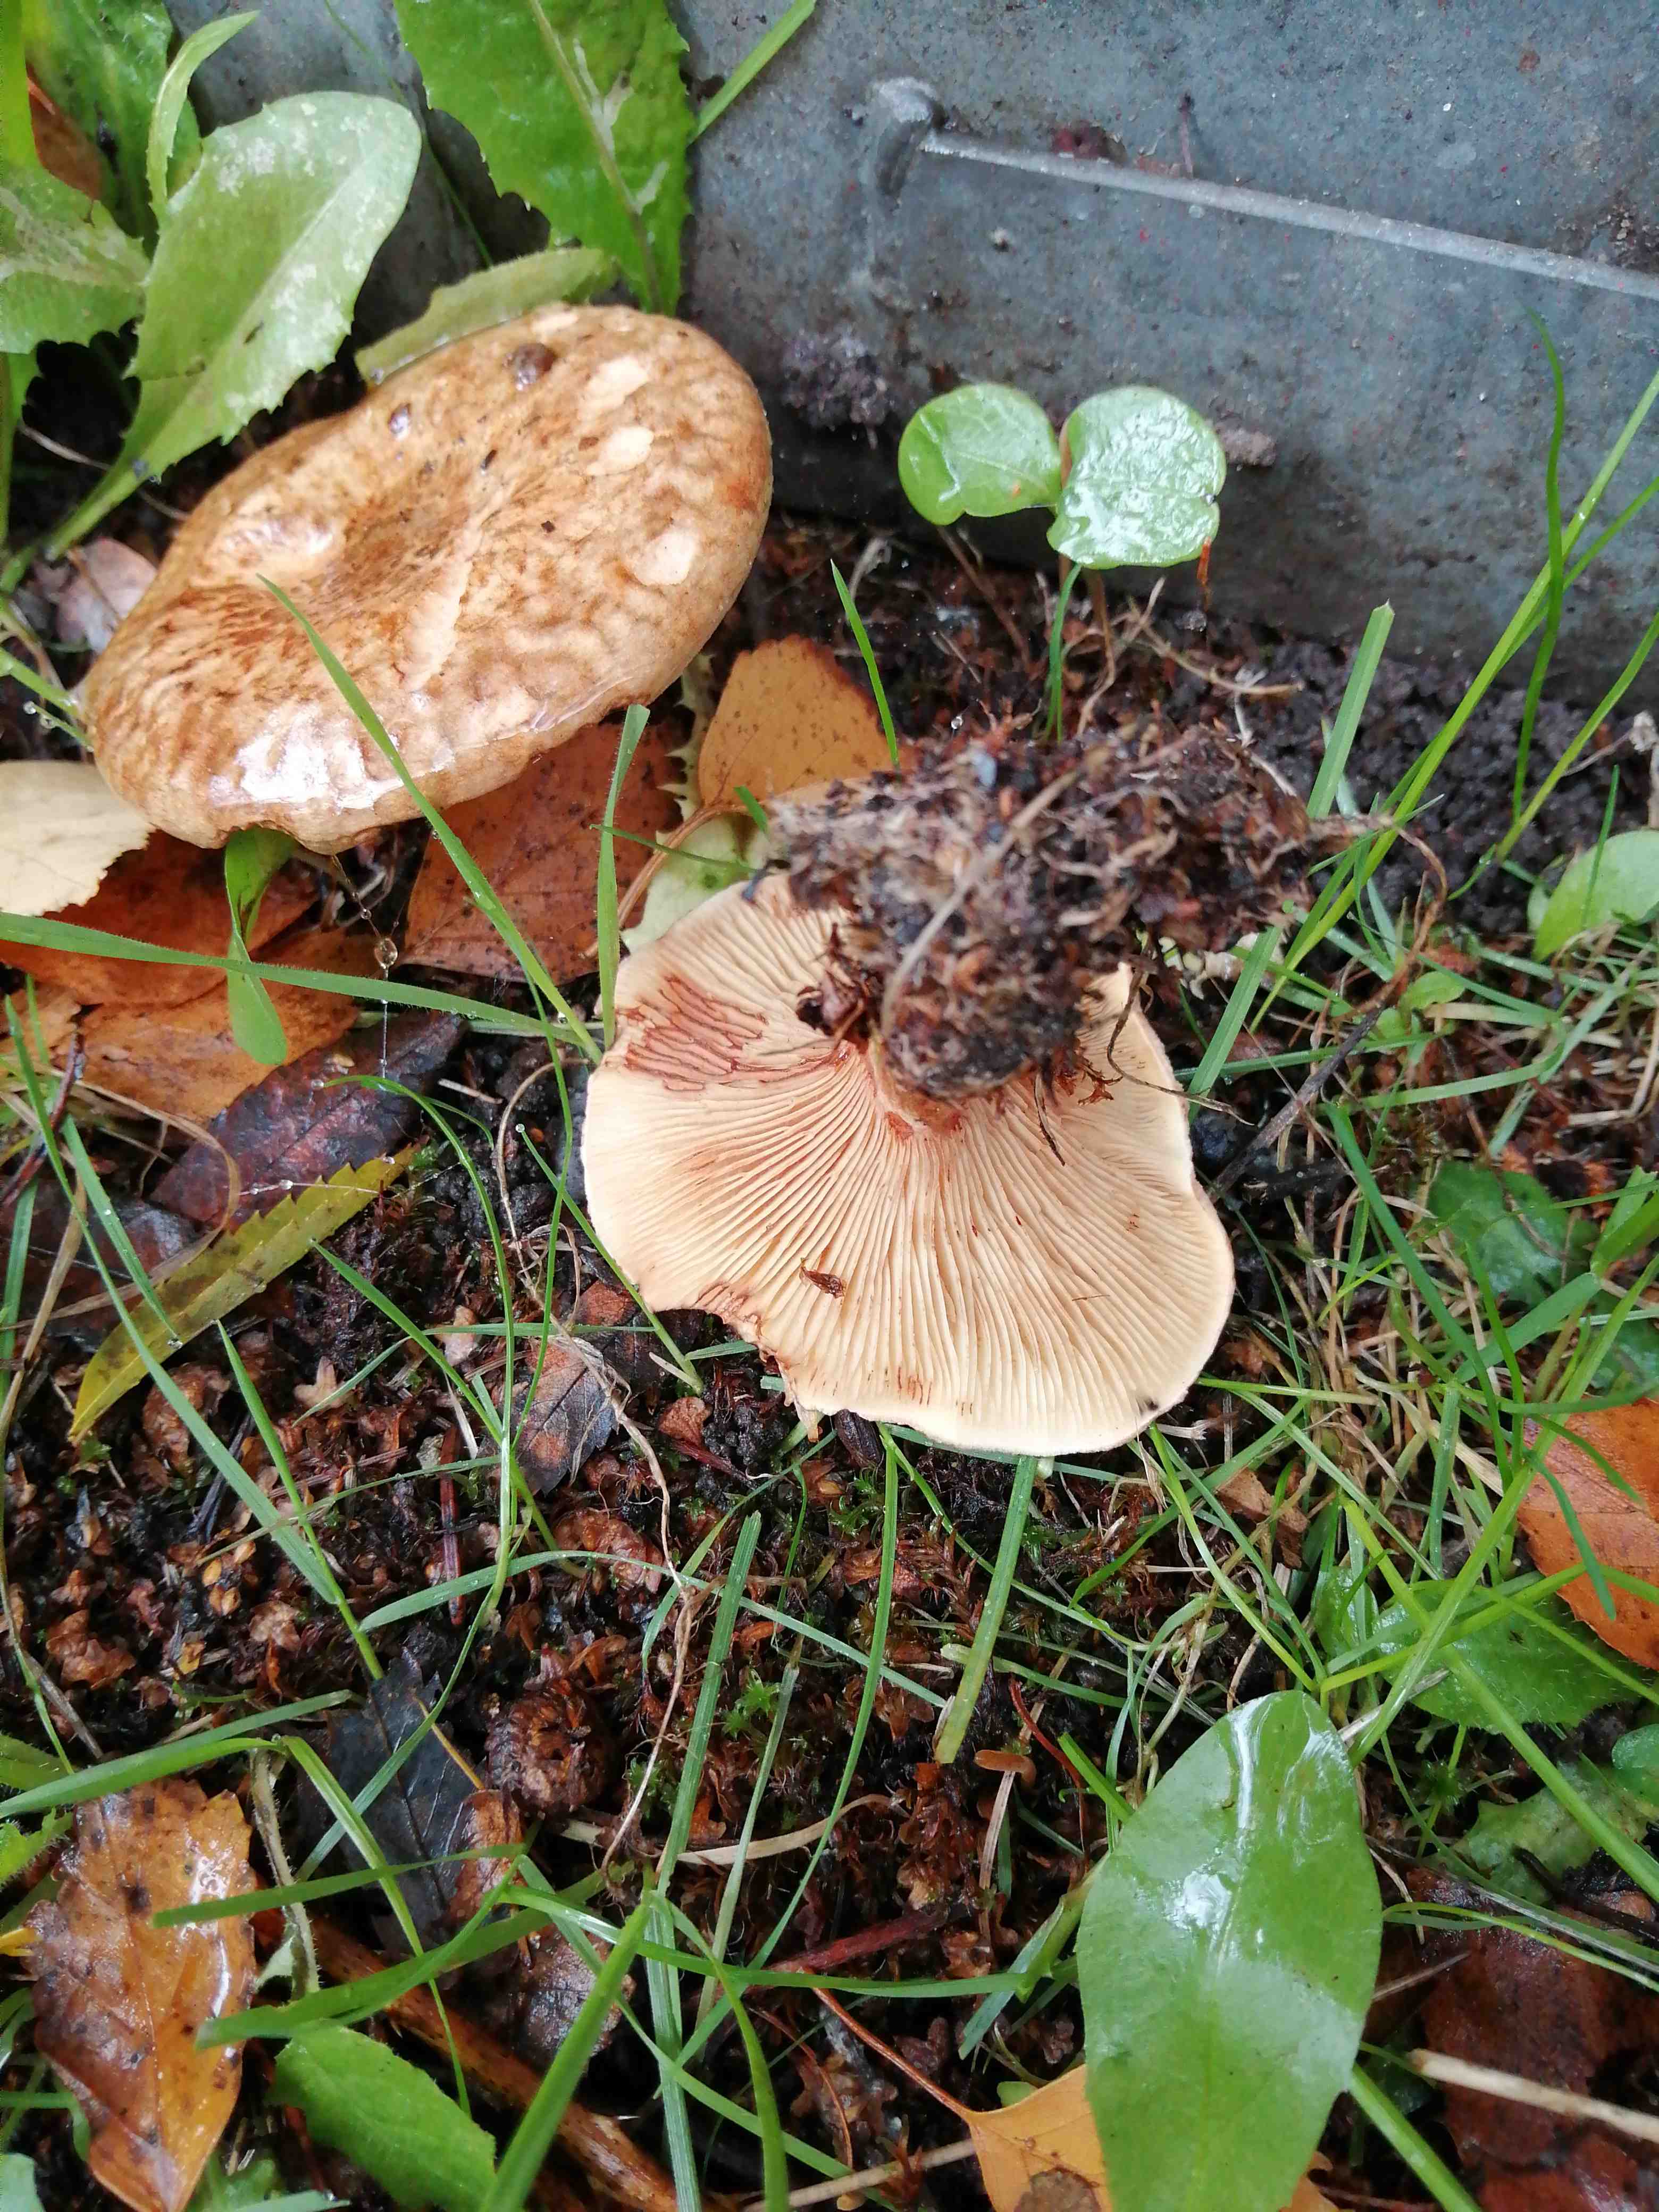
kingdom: Fungi
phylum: Basidiomycota
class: Agaricomycetes
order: Boletales
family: Paxillaceae
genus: Paxillus
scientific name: Paxillus
